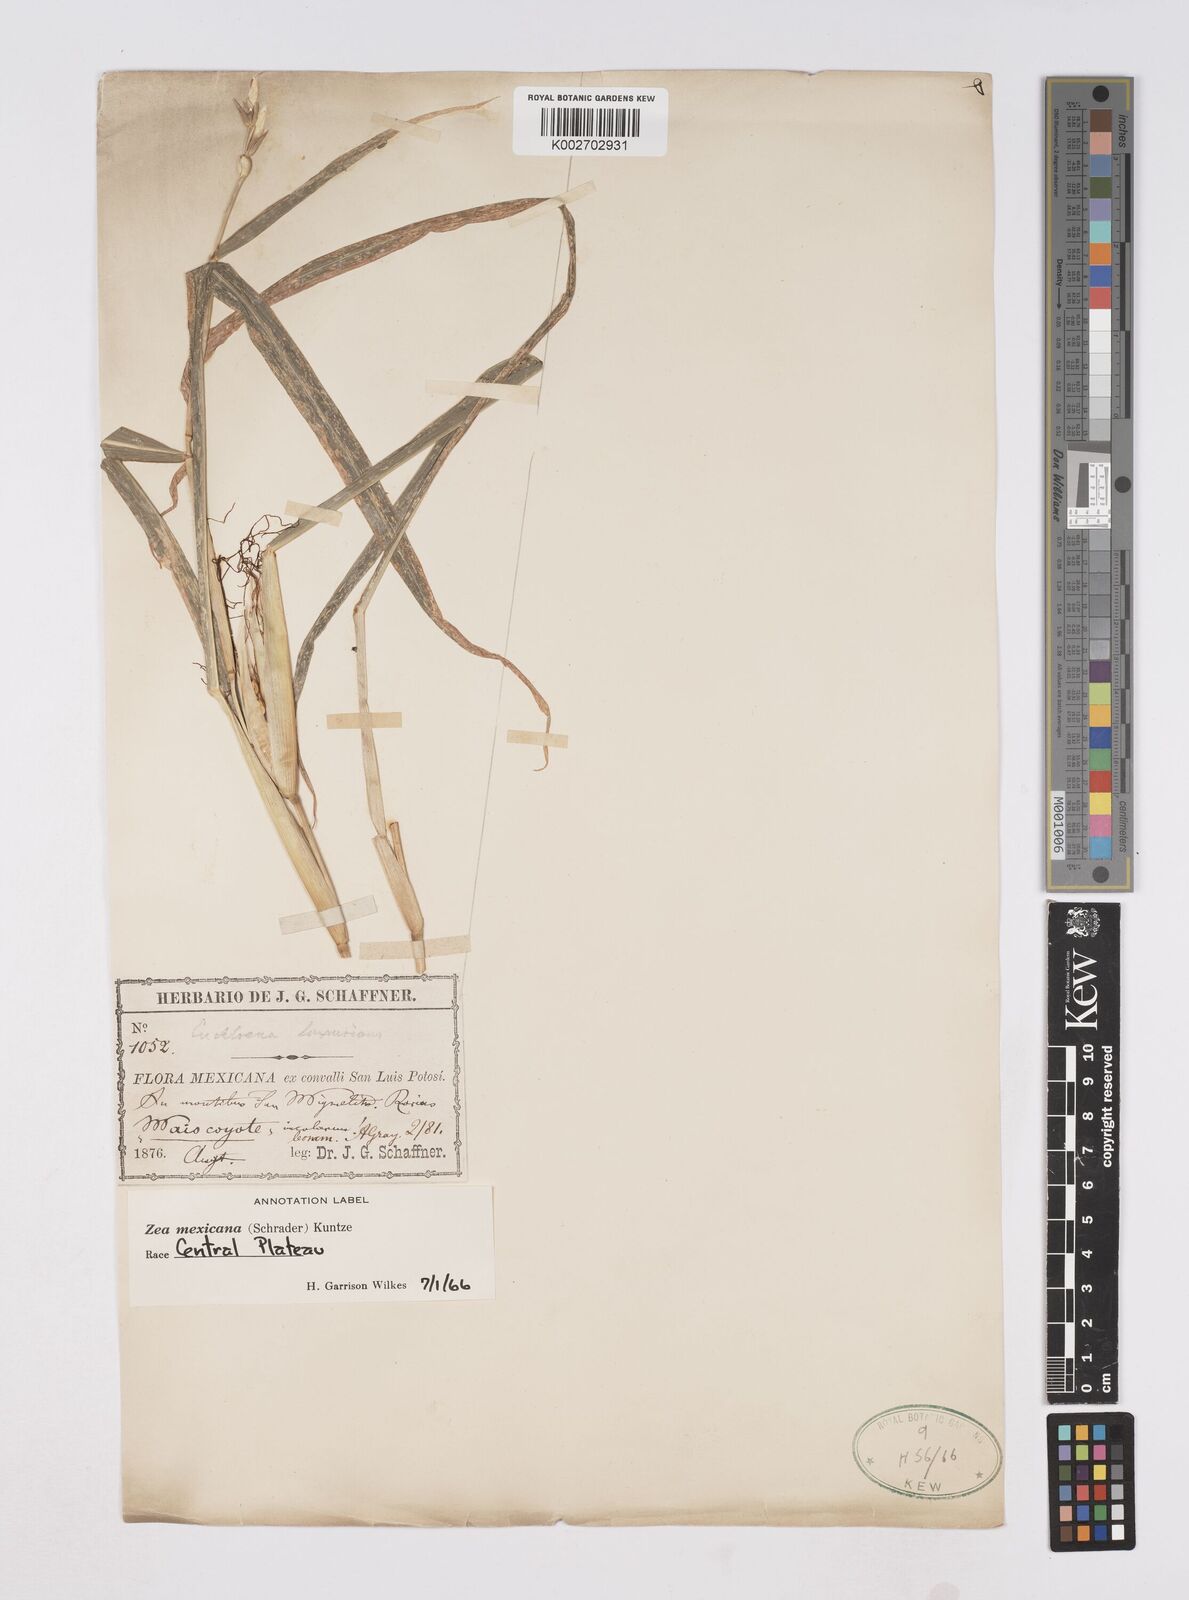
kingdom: Plantae
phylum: Tracheophyta
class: Liliopsida
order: Poales
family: Poaceae
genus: Zea
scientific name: Zea mexicana
